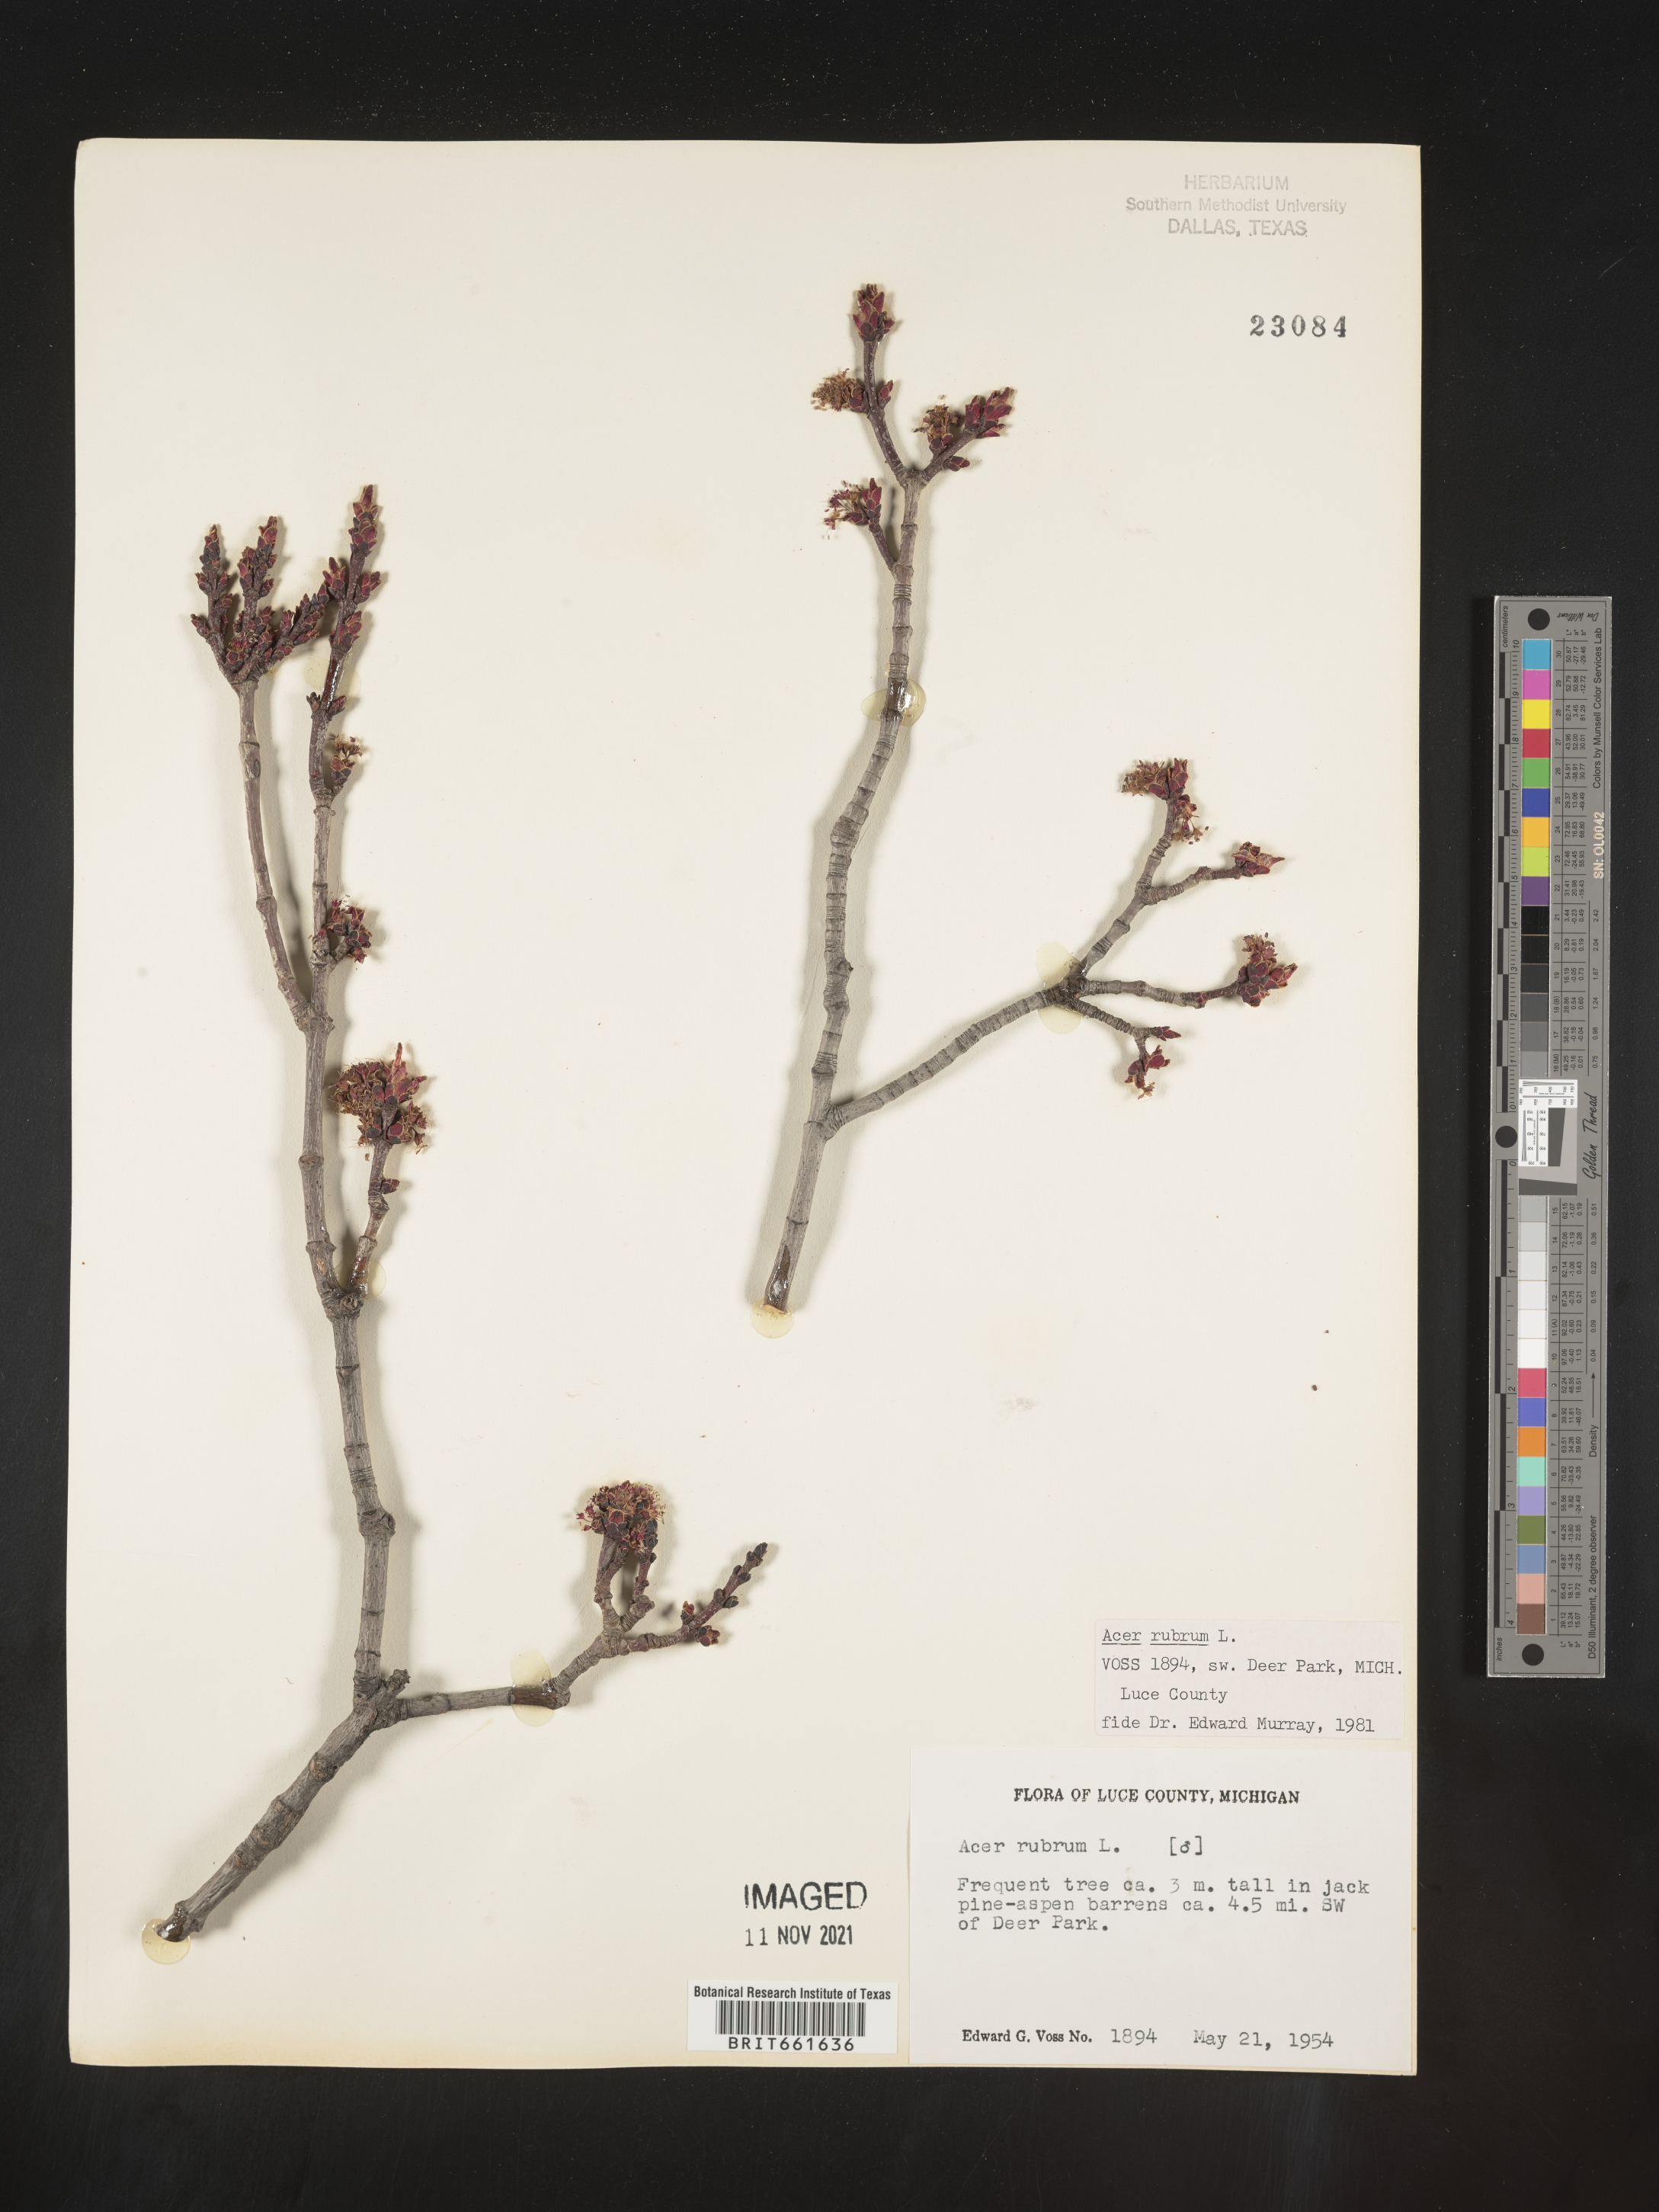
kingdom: Plantae
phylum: Tracheophyta
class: Magnoliopsida
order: Sapindales
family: Sapindaceae
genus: Acer
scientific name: Acer rubrum
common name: Red maple
